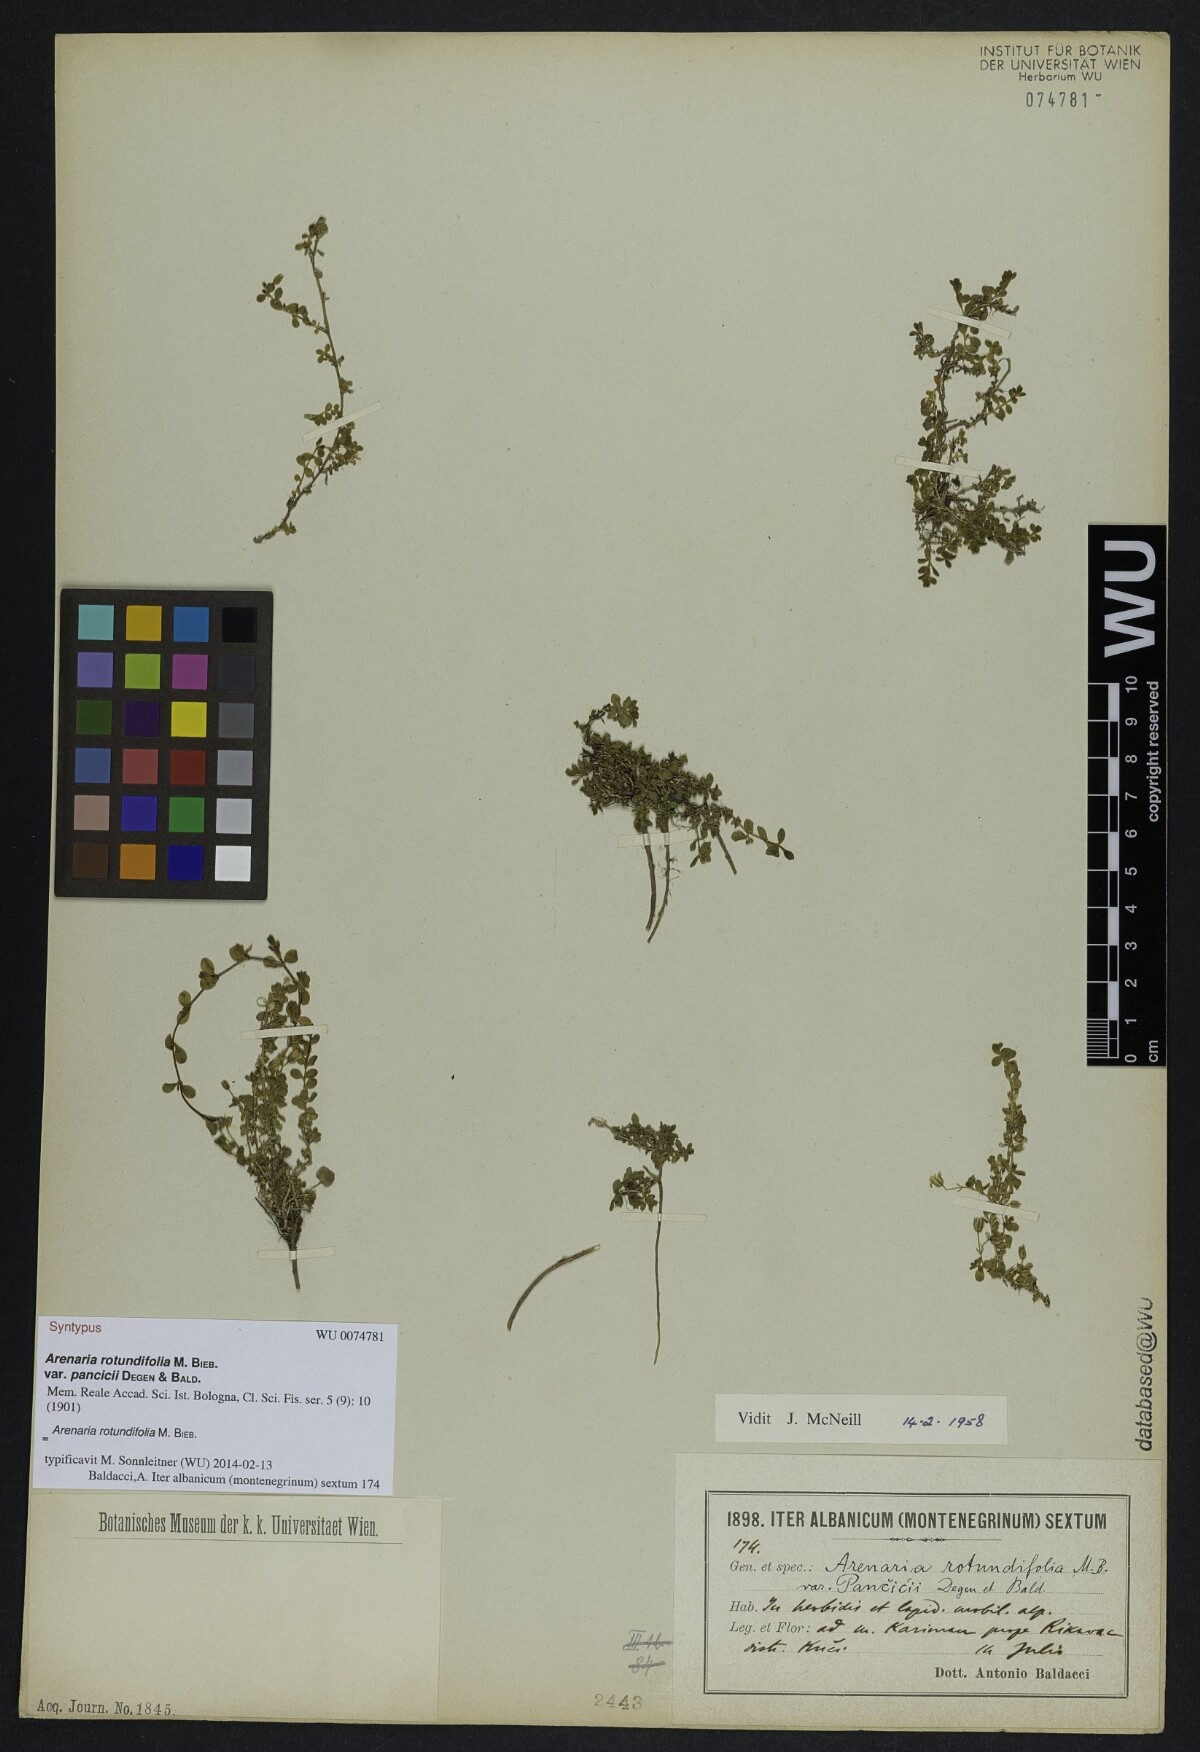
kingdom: Plantae
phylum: Tracheophyta
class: Magnoliopsida
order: Caryophyllales
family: Caryophyllaceae
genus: Arenaria
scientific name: Arenaria rotundifolia
